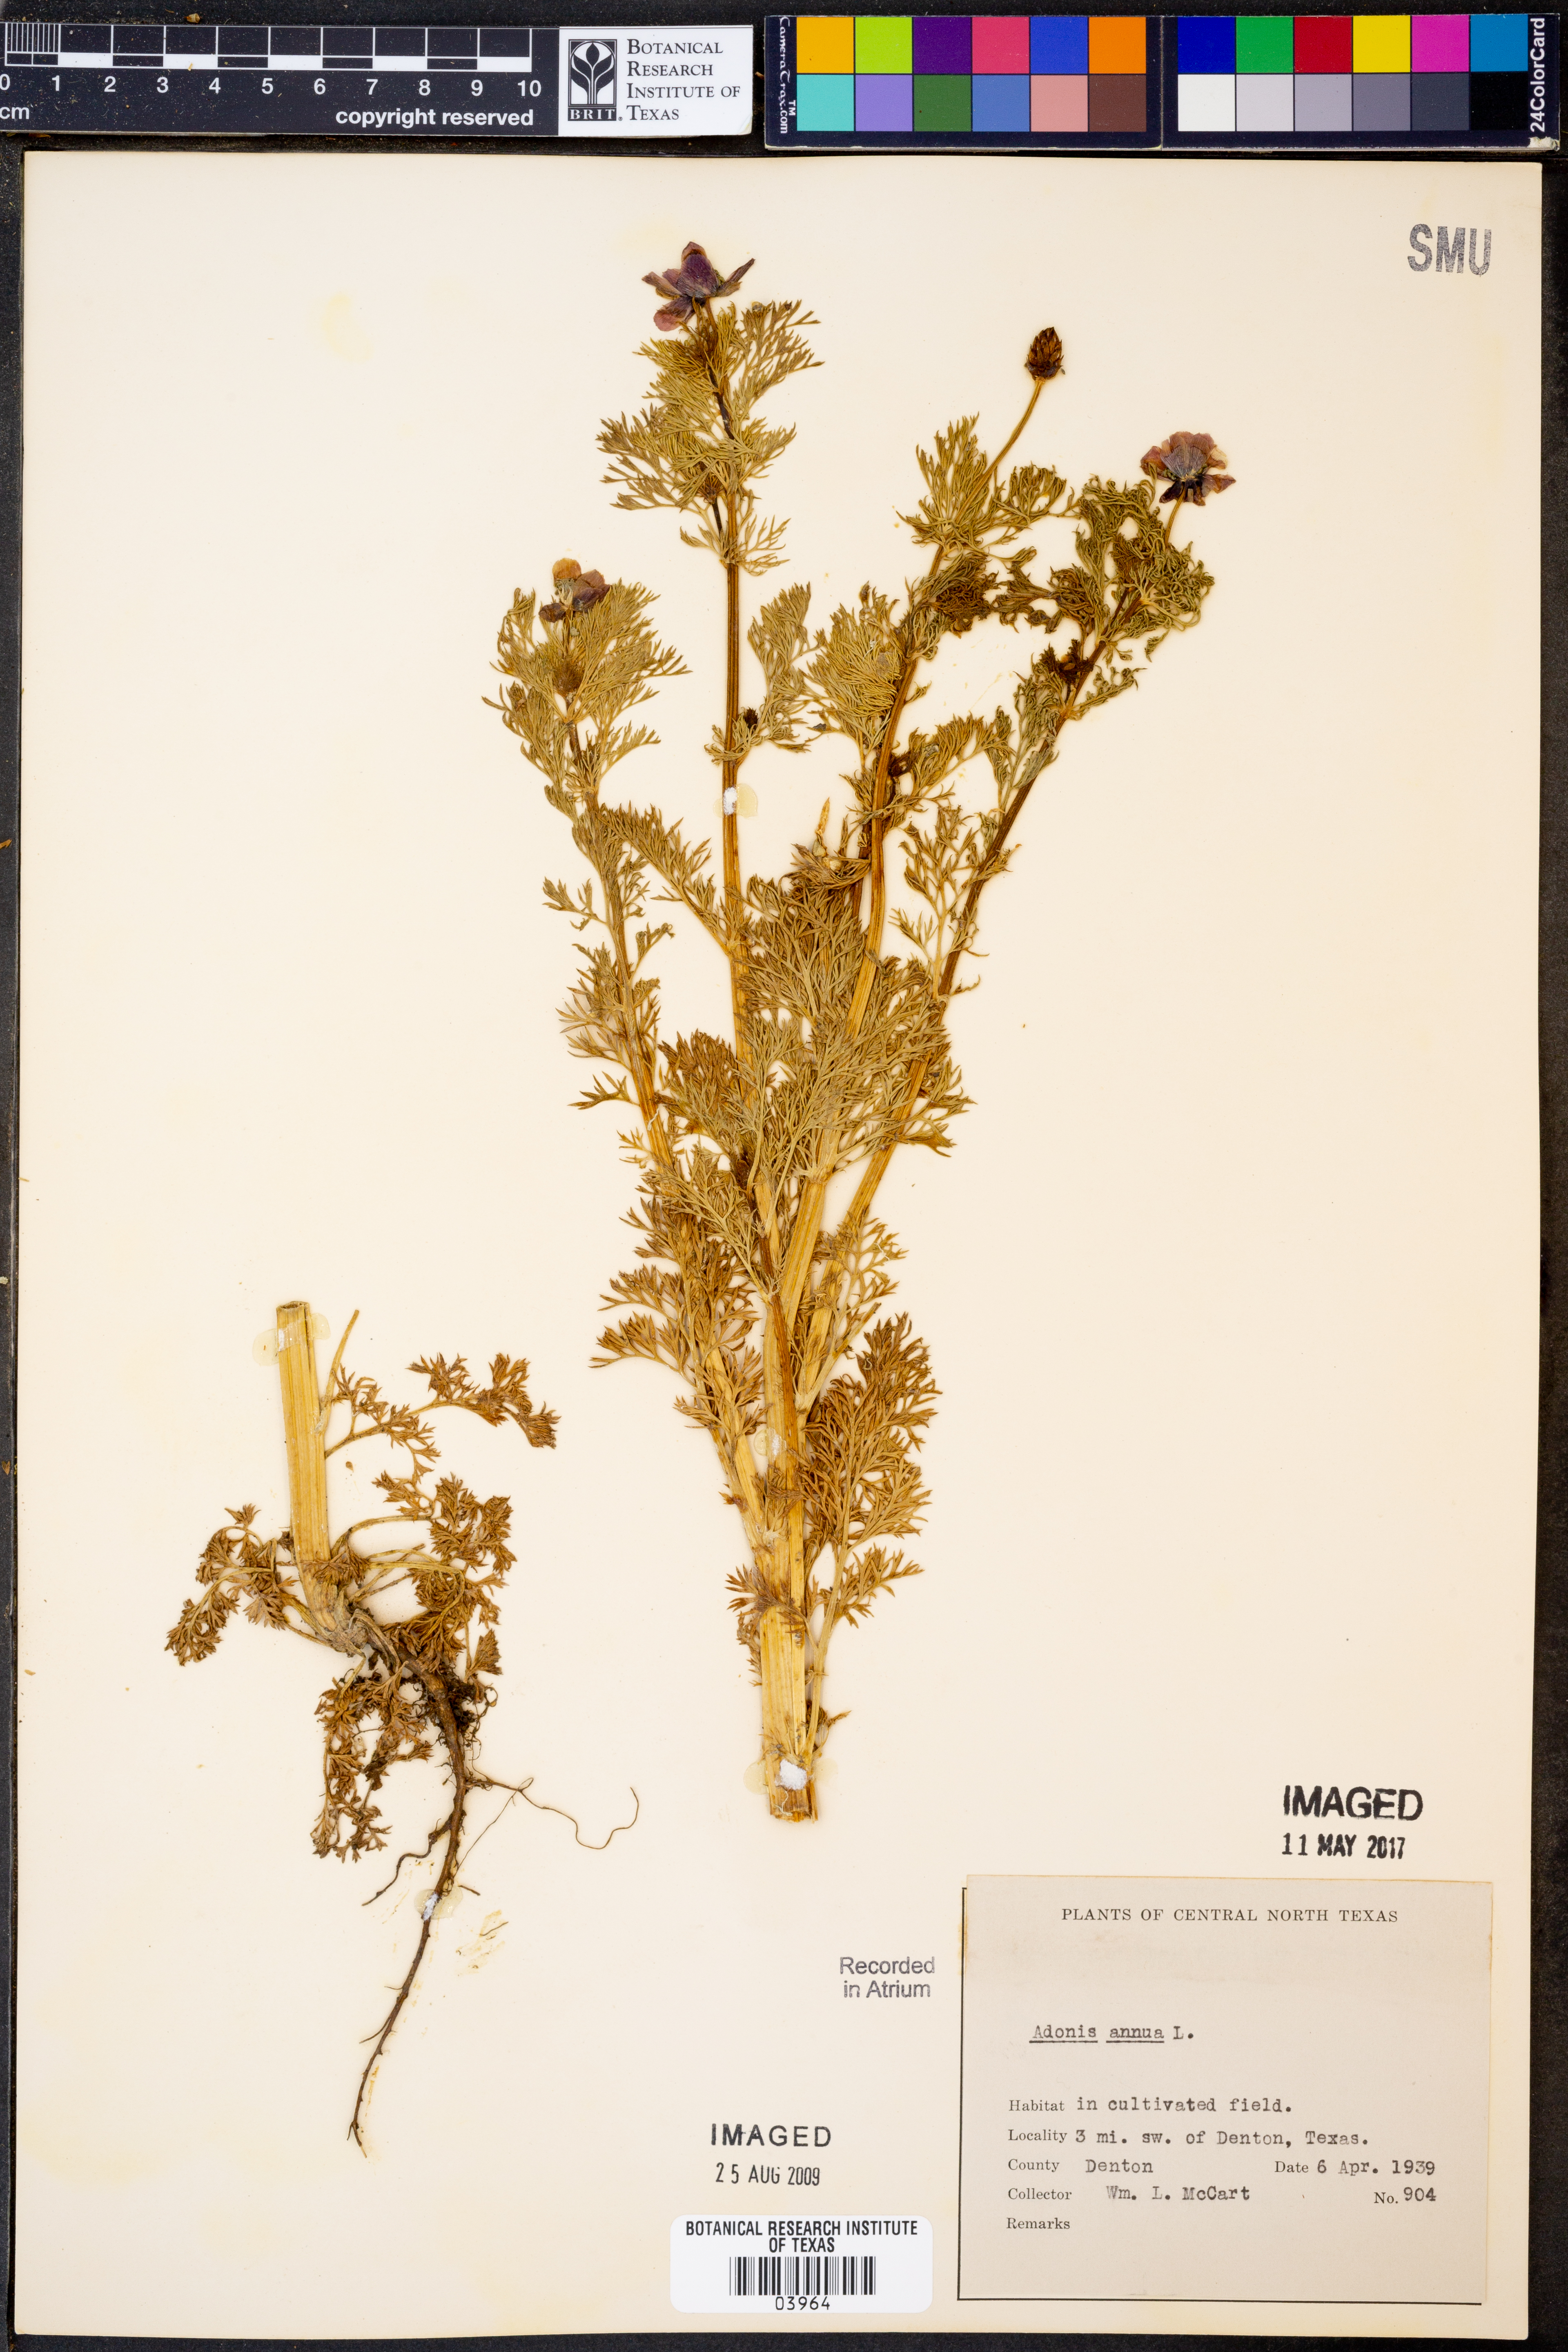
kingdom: Plantae
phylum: Tracheophyta
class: Magnoliopsida
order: Ranunculales
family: Ranunculaceae
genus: Adonis
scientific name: Adonis annua
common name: Pheasant's-eye
